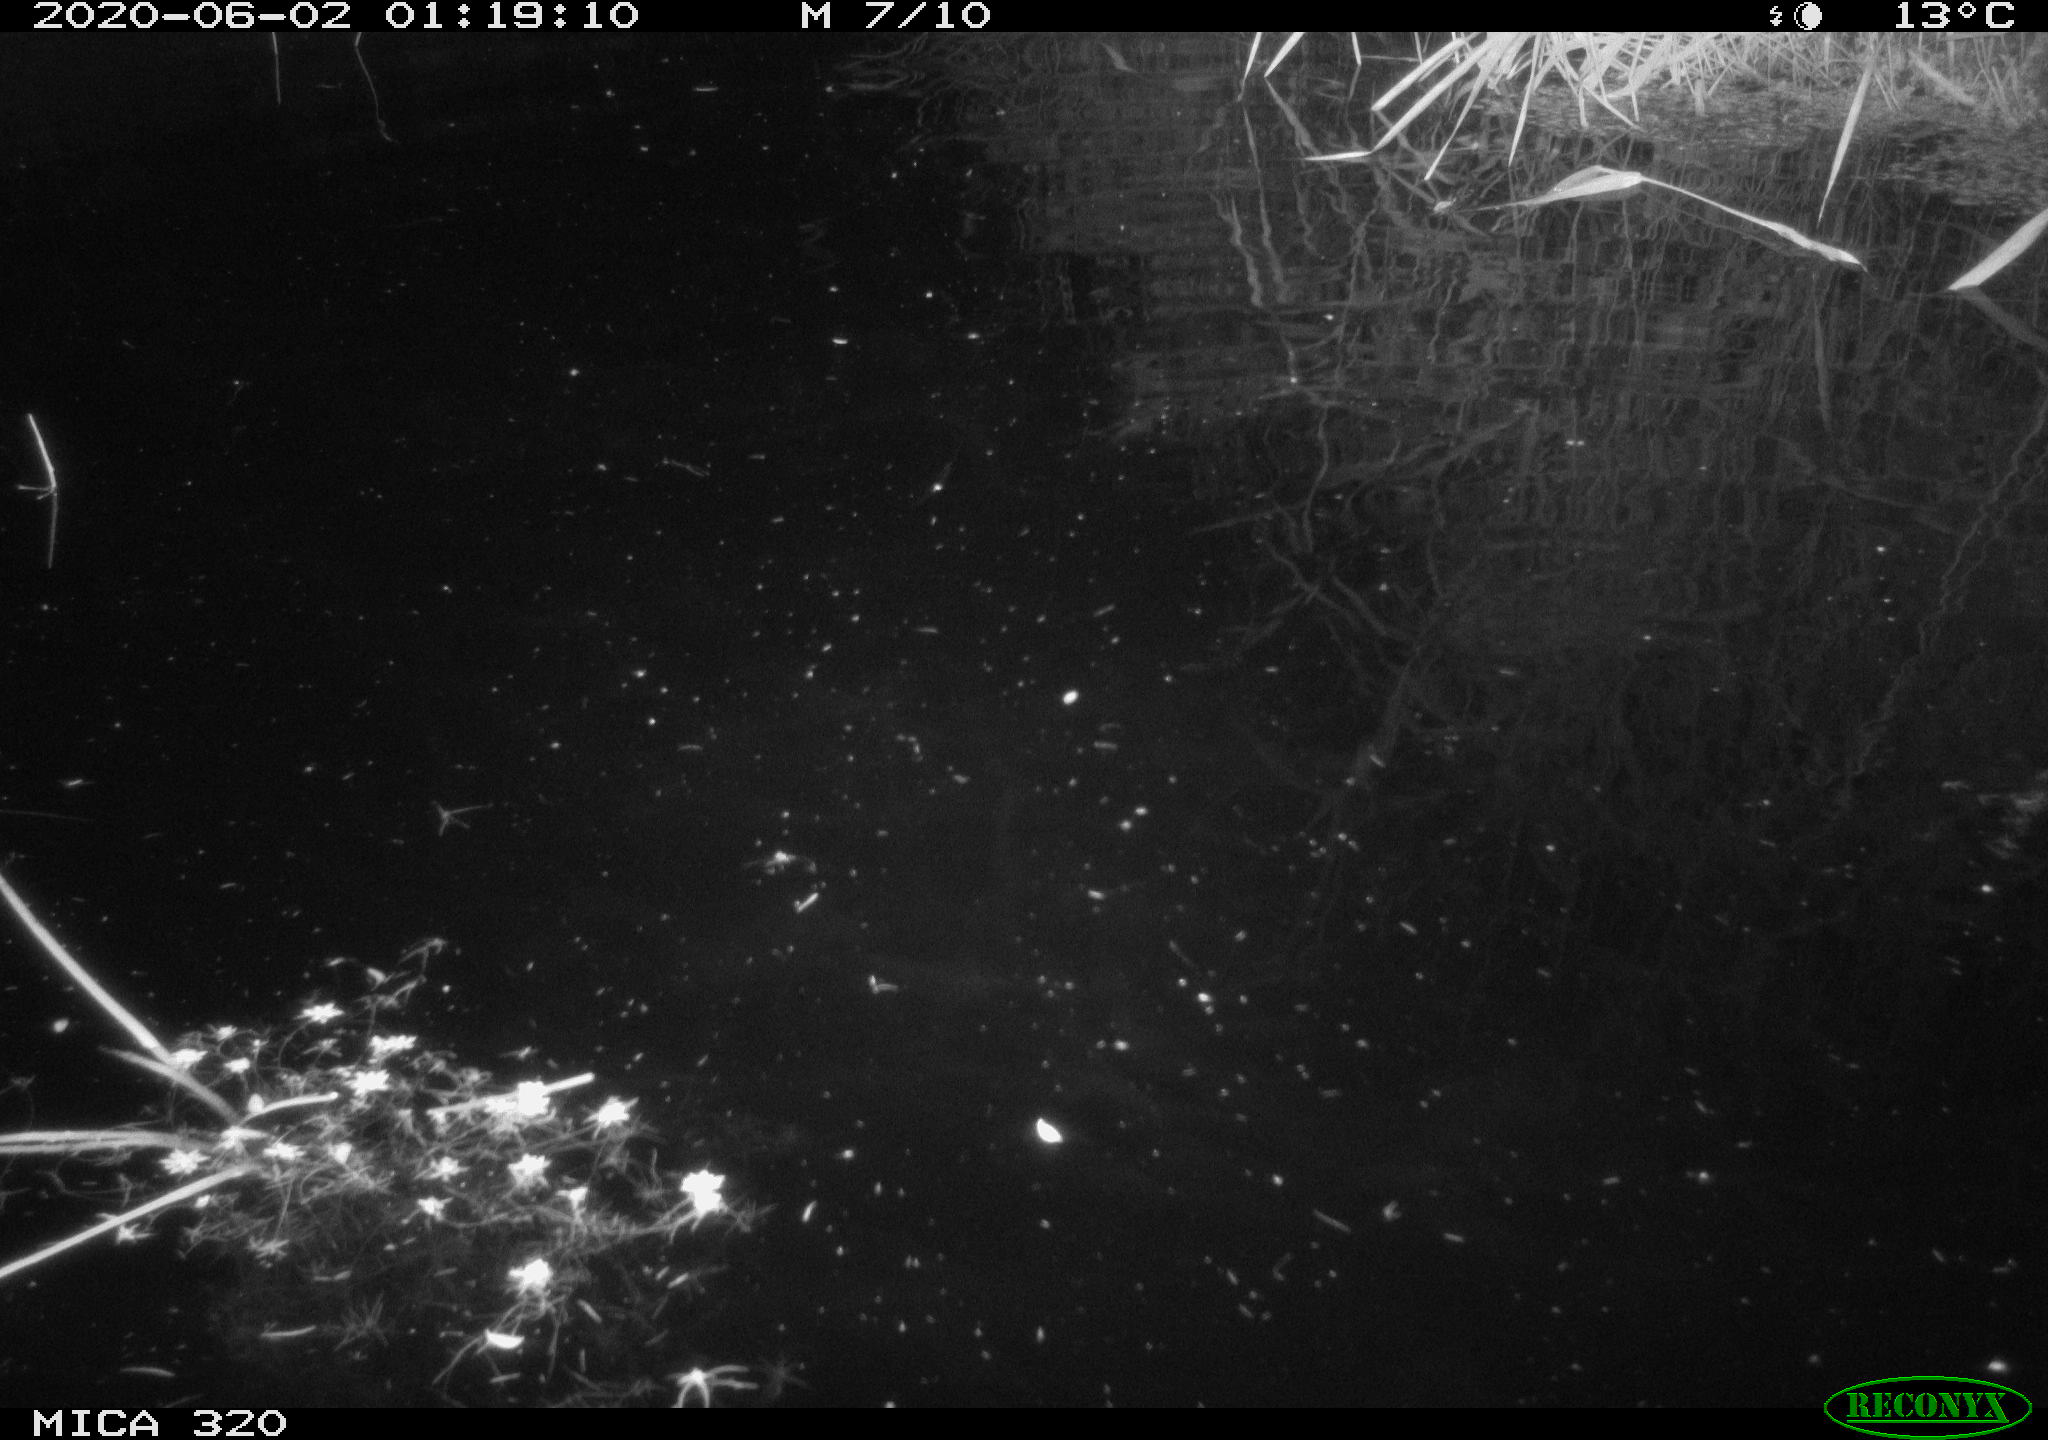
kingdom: Animalia
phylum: Chordata
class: Aves
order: Anseriformes
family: Anatidae
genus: Anas
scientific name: Anas platyrhynchos
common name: Mallard
